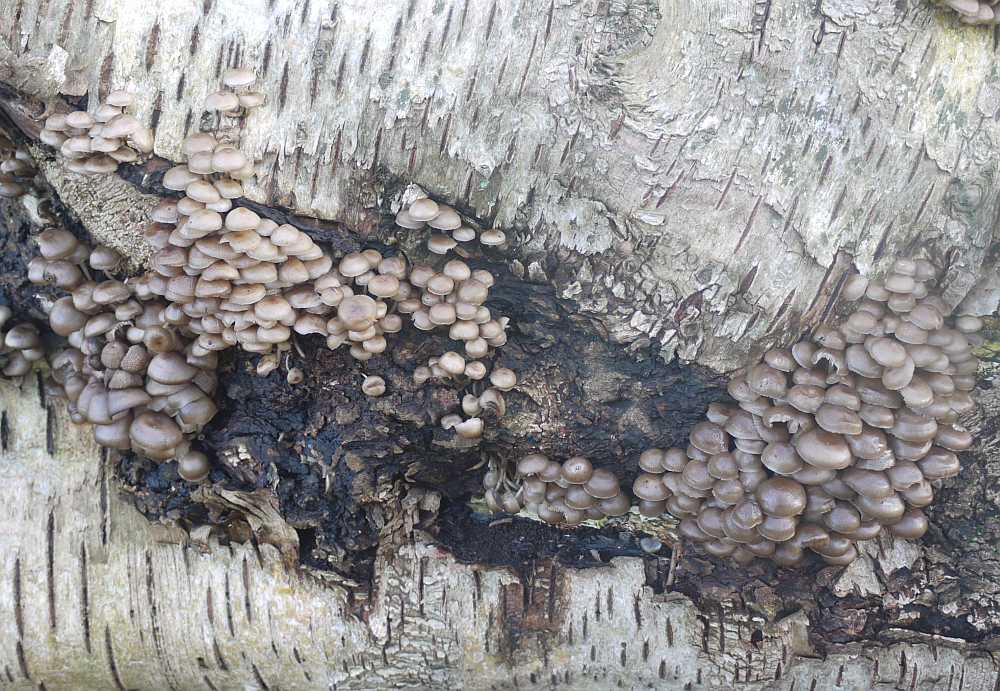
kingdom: Fungi
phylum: Basidiomycota
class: Agaricomycetes
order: Agaricales
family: Mycenaceae
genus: Mycena
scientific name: Mycena tintinnabulum
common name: vinter-huesvamp
